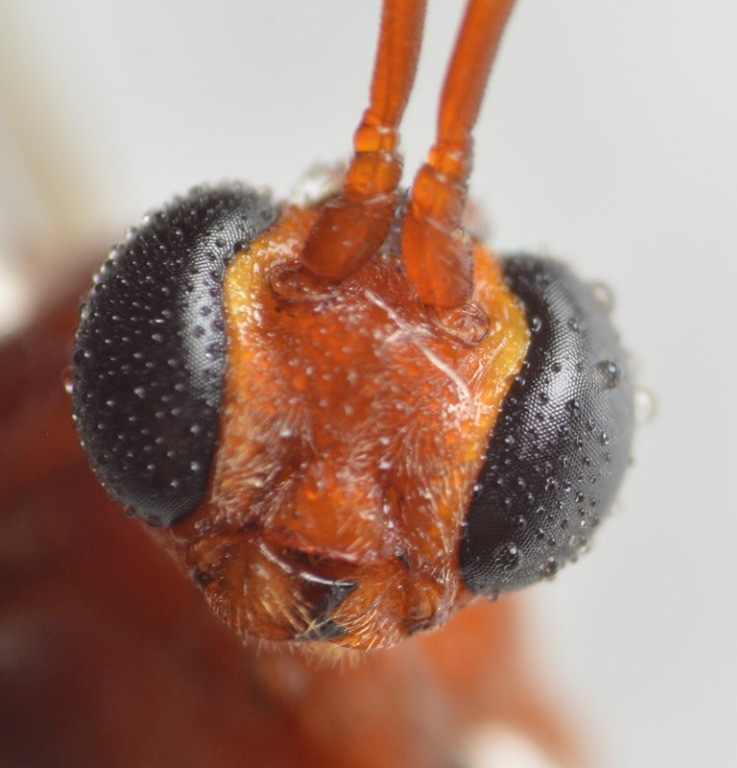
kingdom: Animalia
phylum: Arthropoda
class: Insecta
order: Hymenoptera
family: Ichneumonidae
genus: Ophion
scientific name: Ophion scutellaris
